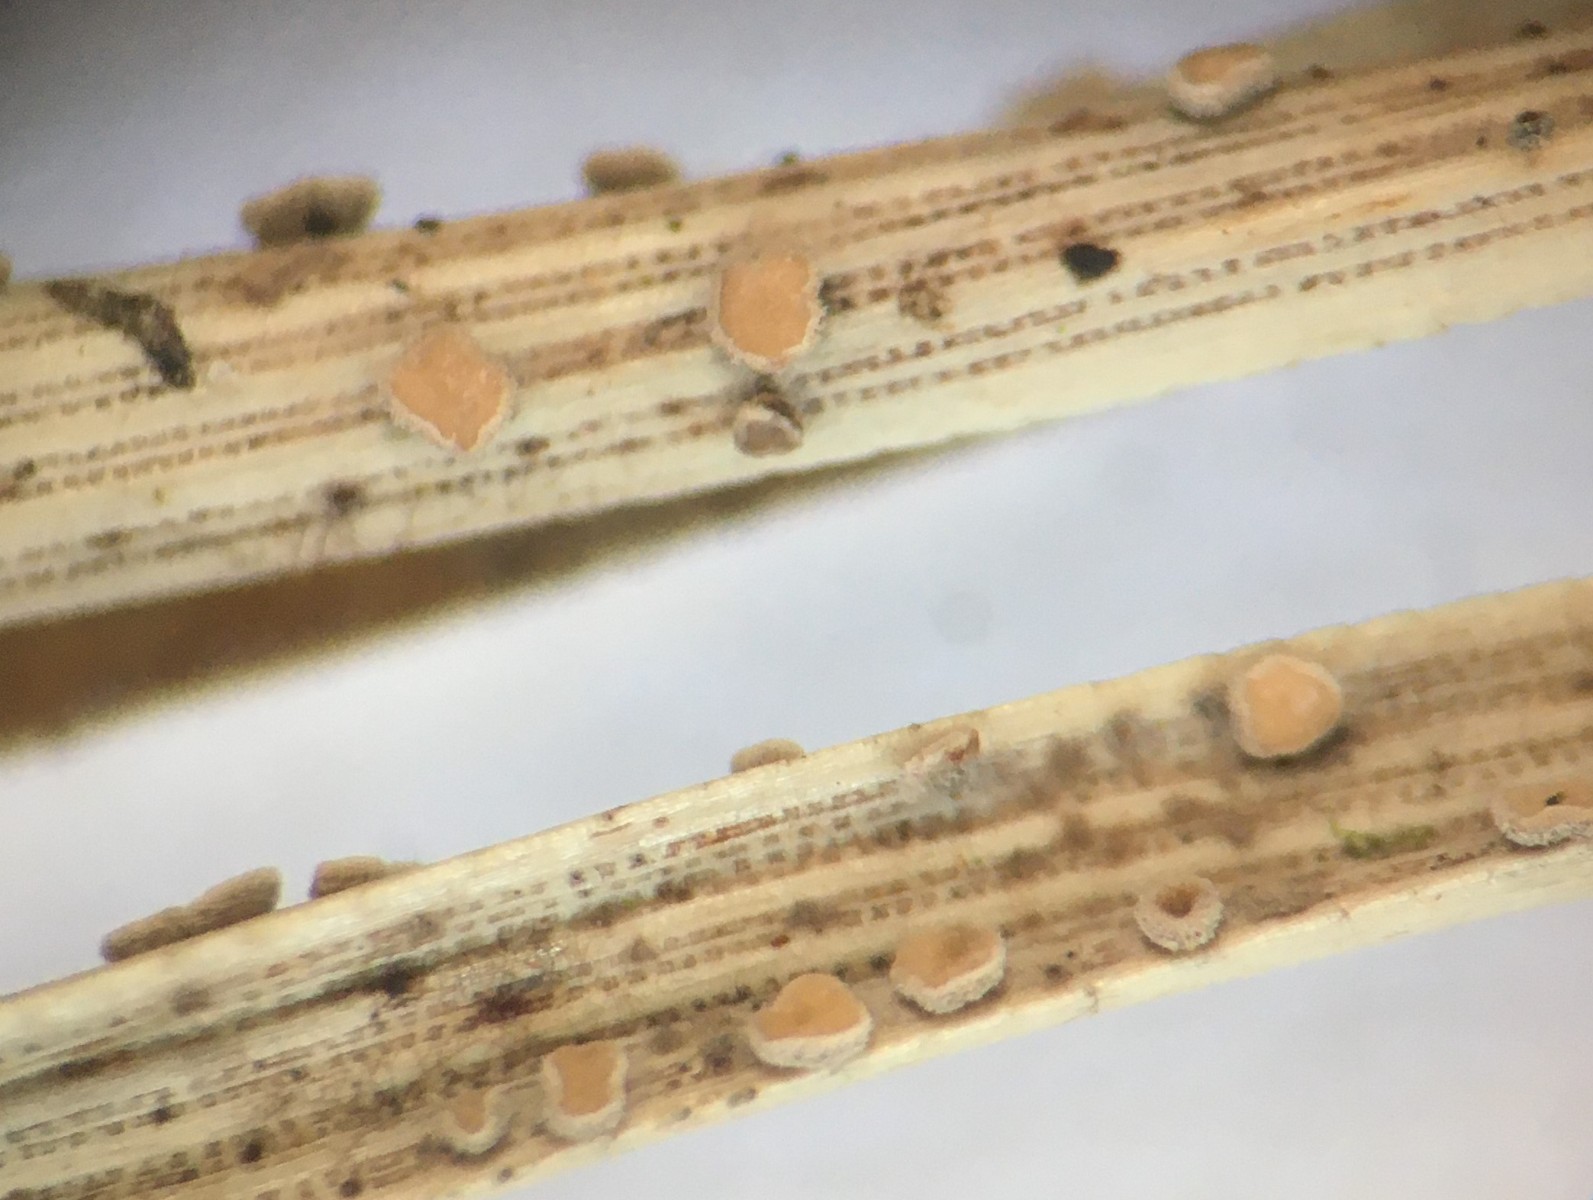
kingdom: Fungi
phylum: Ascomycota
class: Leotiomycetes
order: Helotiales
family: Helotiaceae
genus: Pseudohelotium
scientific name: Pseudohelotium pineti
